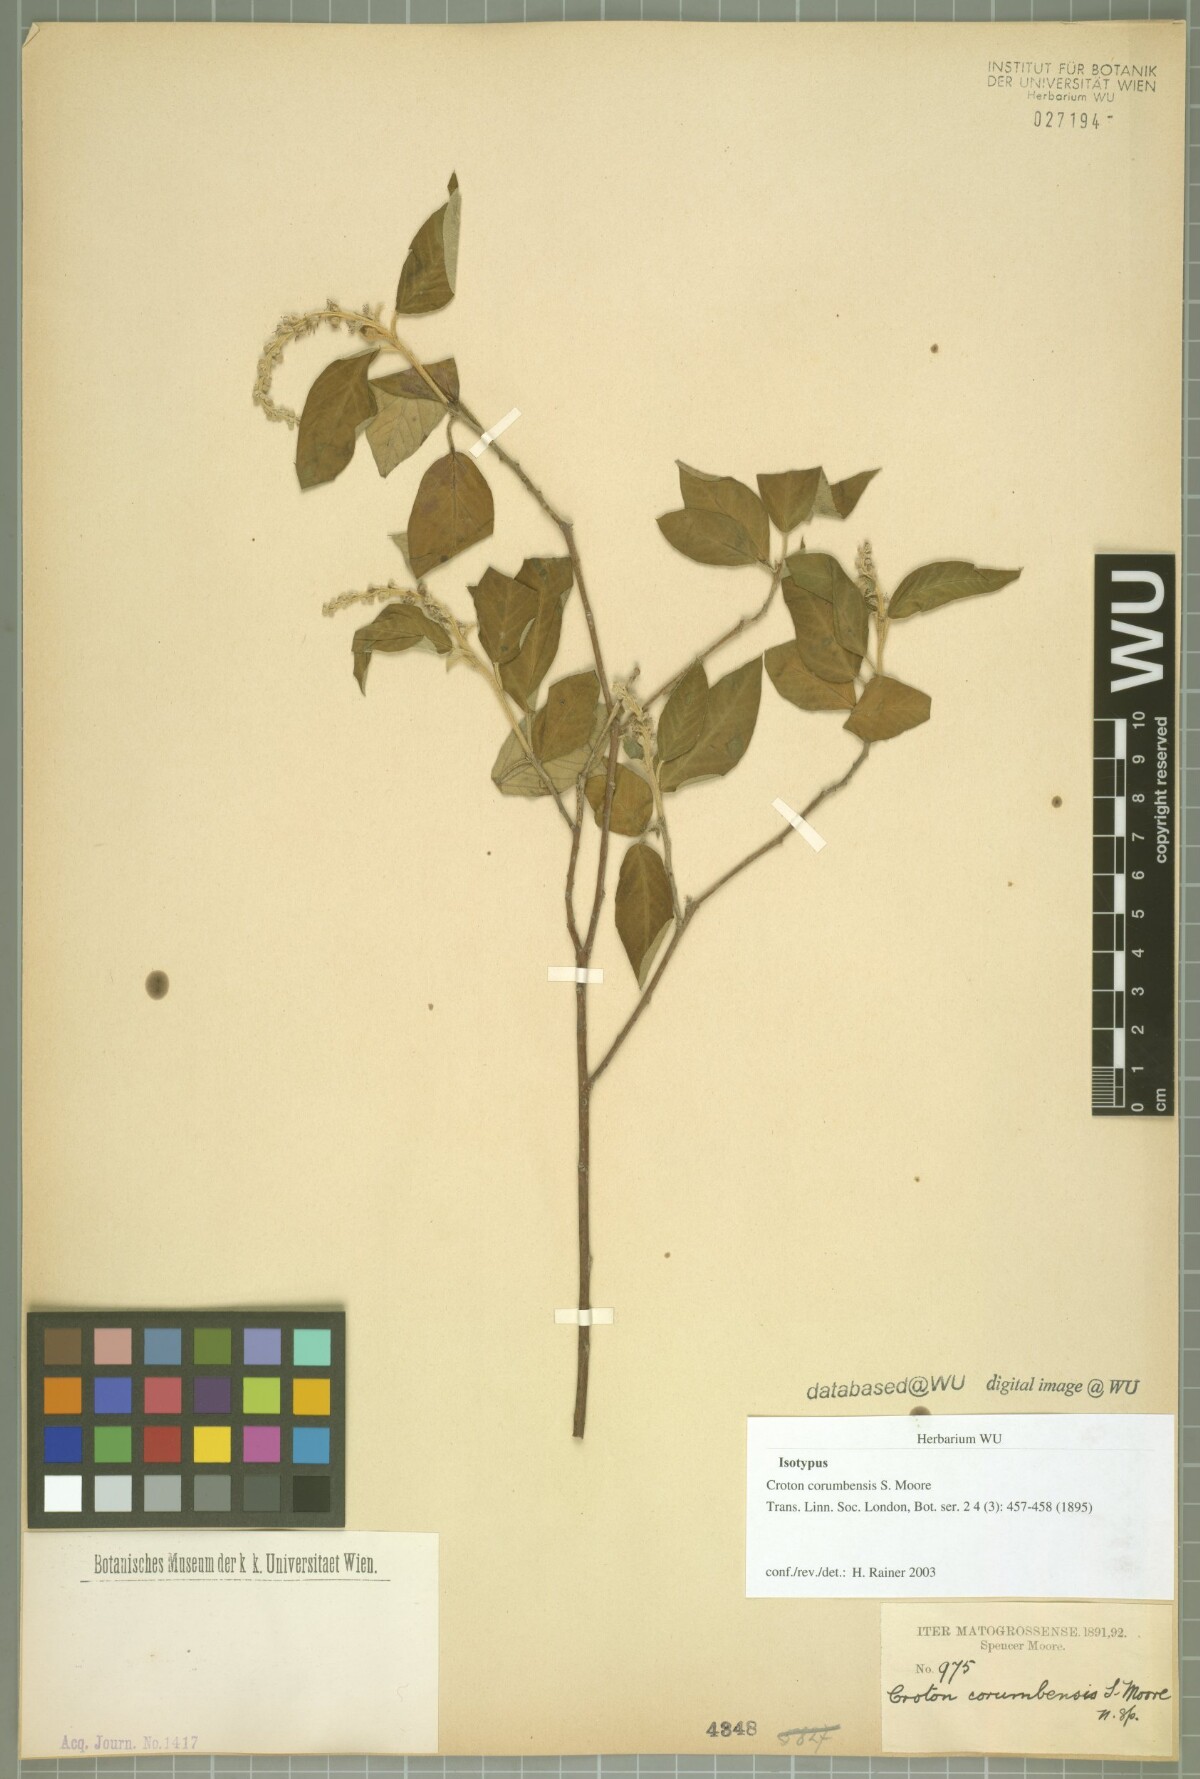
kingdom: Plantae
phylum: Tracheophyta
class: Magnoliopsida
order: Malpighiales
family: Euphorbiaceae
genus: Croton
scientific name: Croton corumbensis
